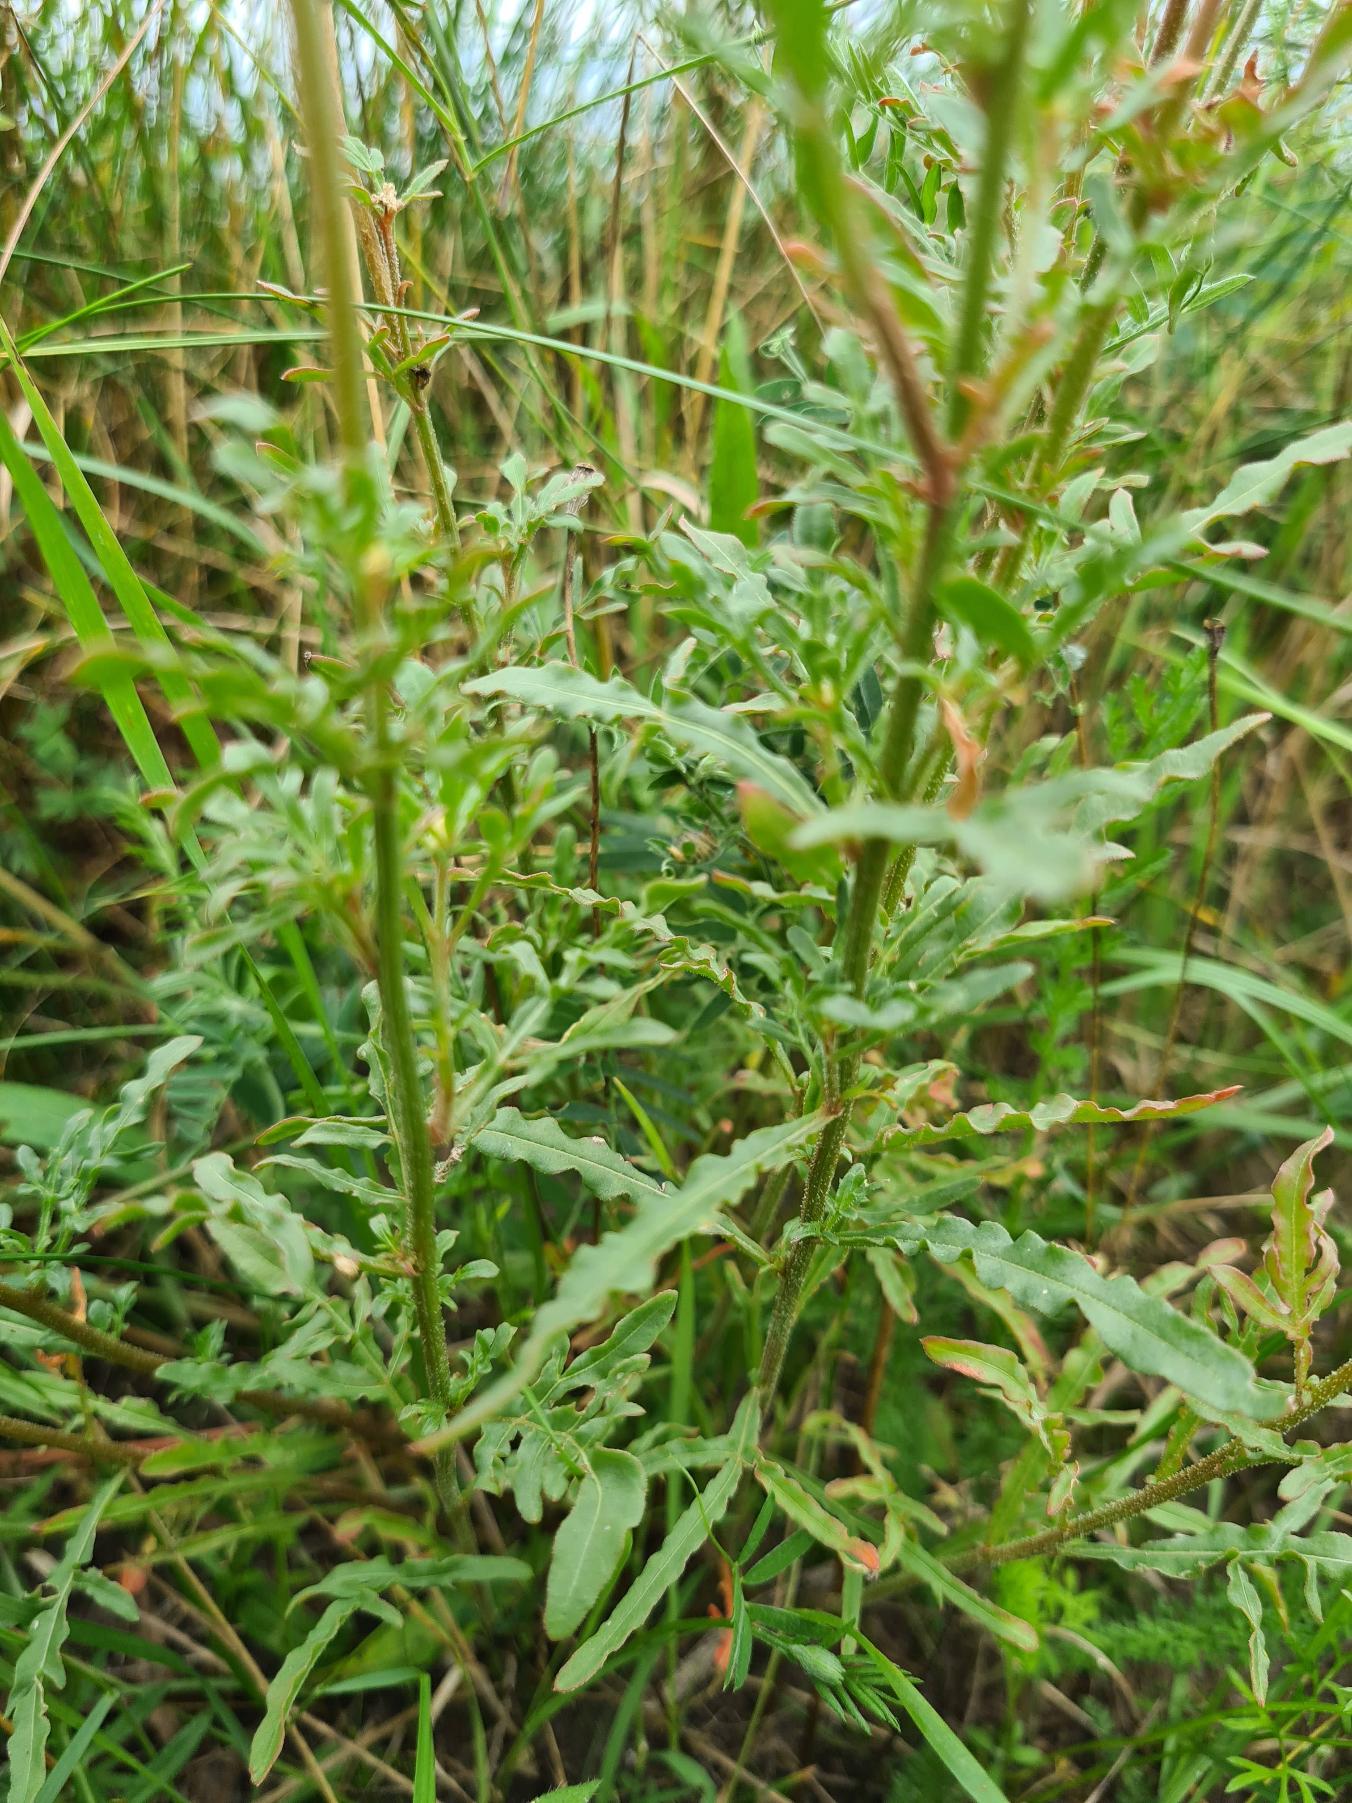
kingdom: Plantae
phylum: Tracheophyta
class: Magnoliopsida
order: Brassicales
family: Resedaceae
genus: Reseda
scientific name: Reseda lutea
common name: Gul reseda
